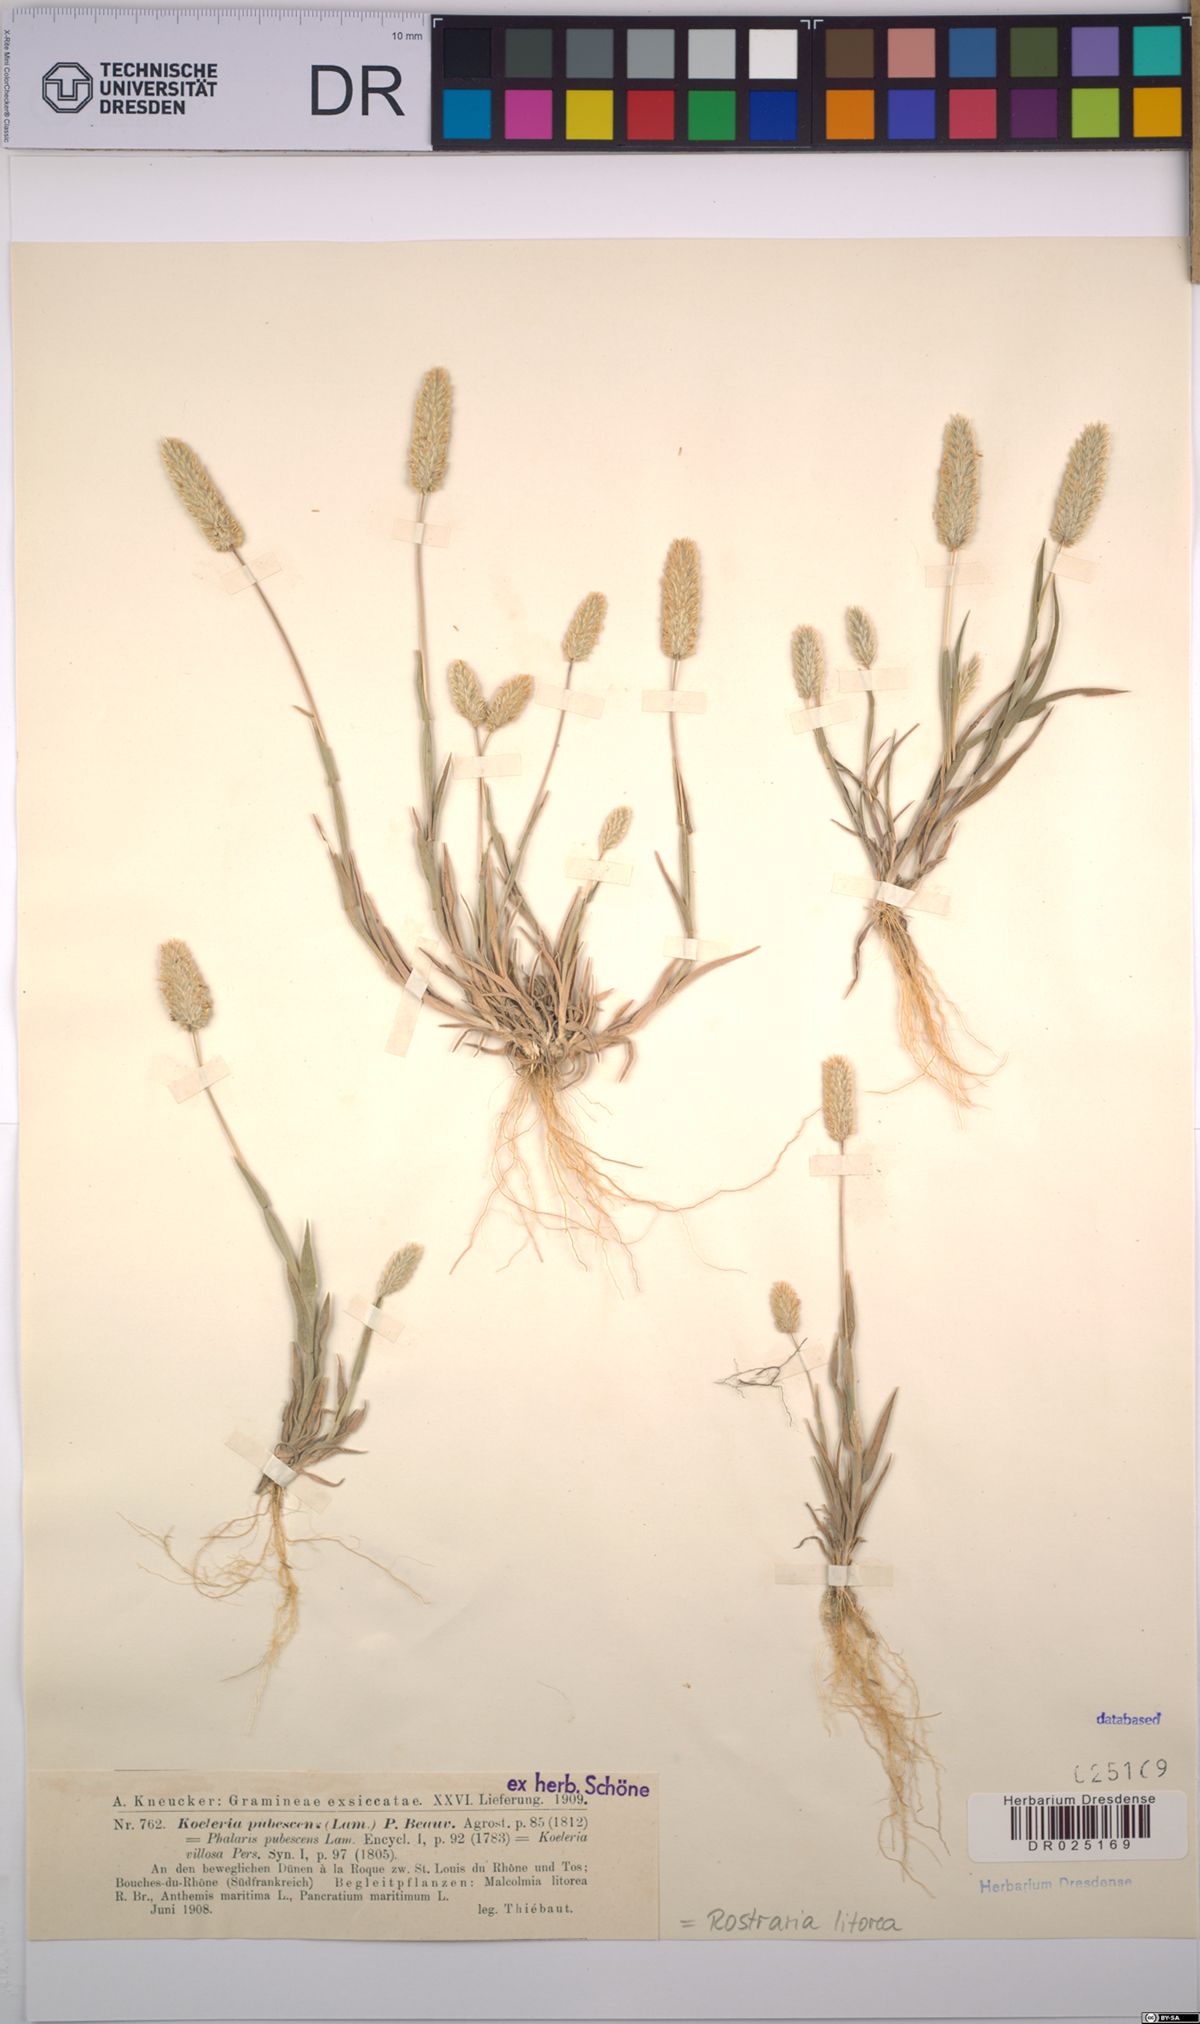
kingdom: Plantae
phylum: Tracheophyta
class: Liliopsida
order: Poales
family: Poaceae
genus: Rostraria
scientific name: Rostraria litorea
